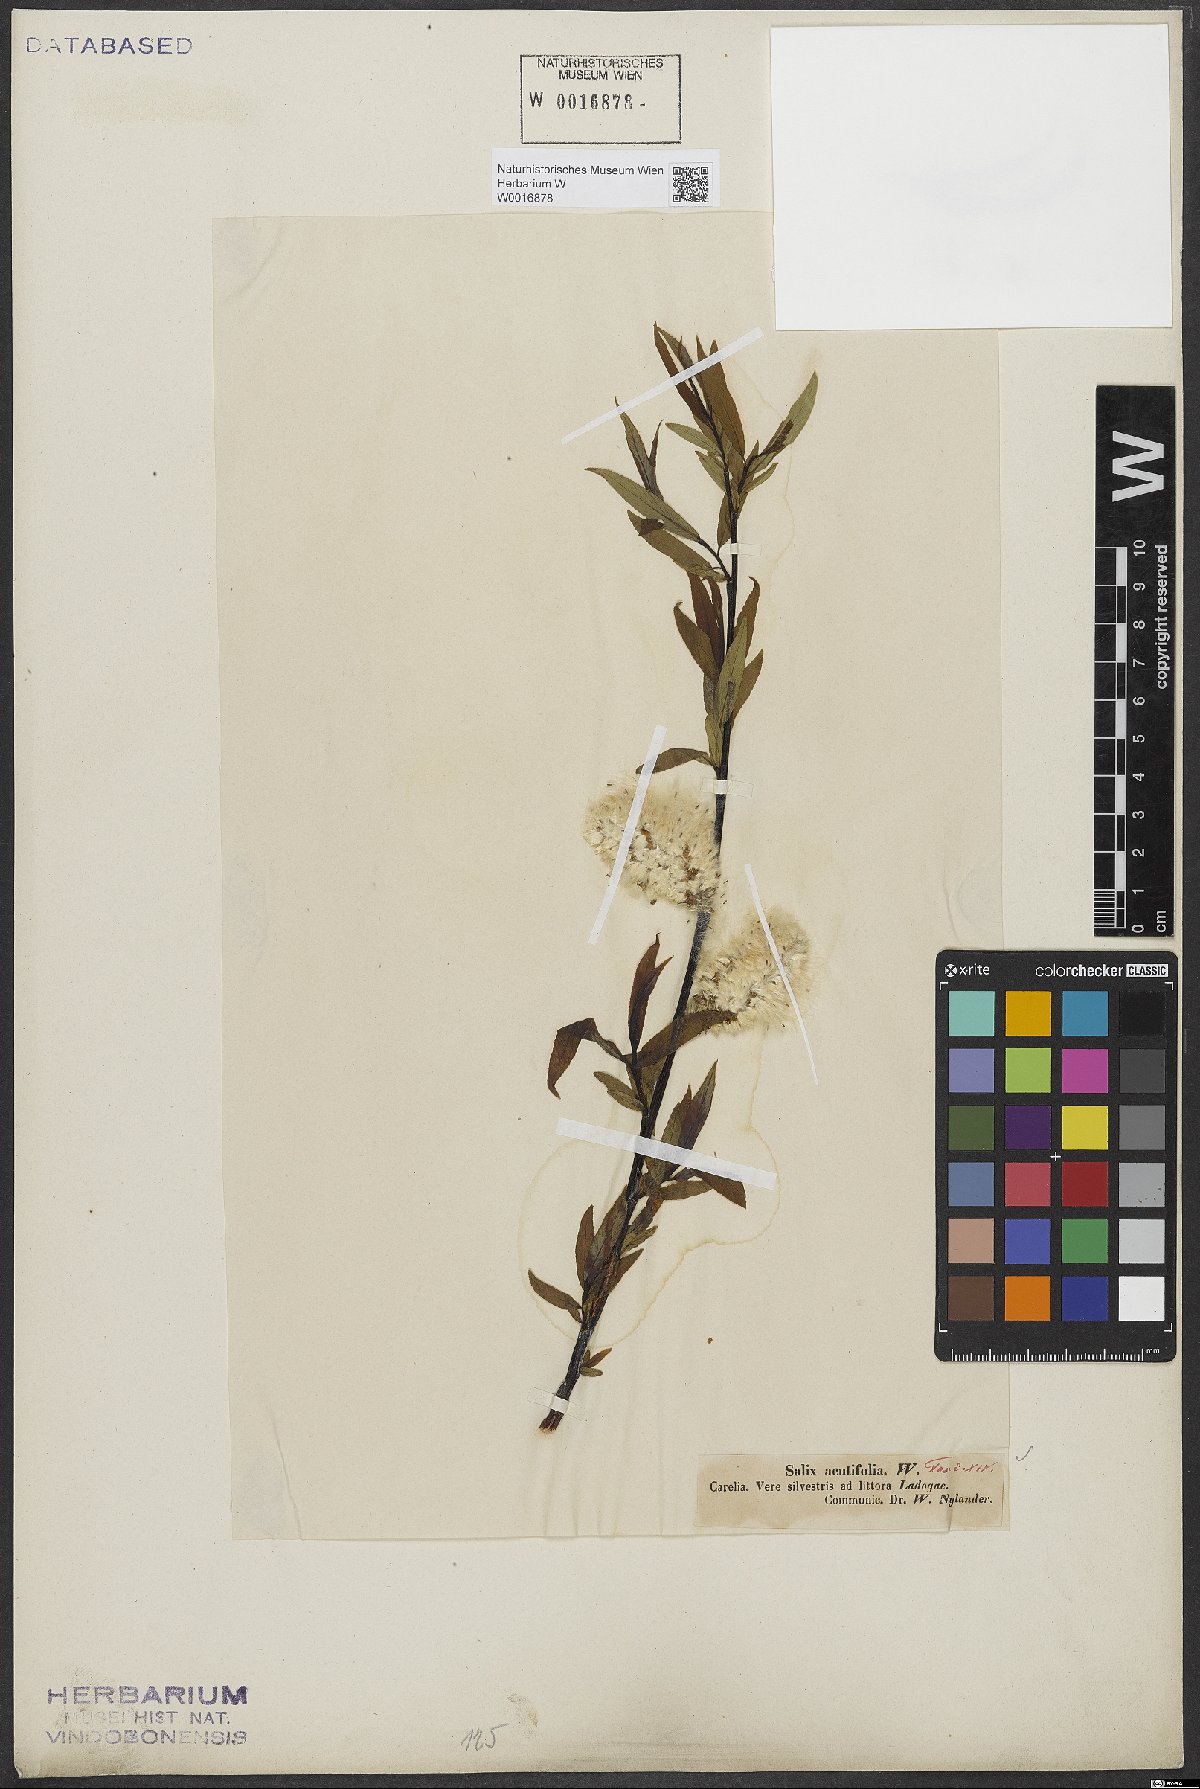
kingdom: Plantae
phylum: Tracheophyta
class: Magnoliopsida
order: Malpighiales
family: Salicaceae
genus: Salix
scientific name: Salix acutifolia
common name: Siberian violet-willow
